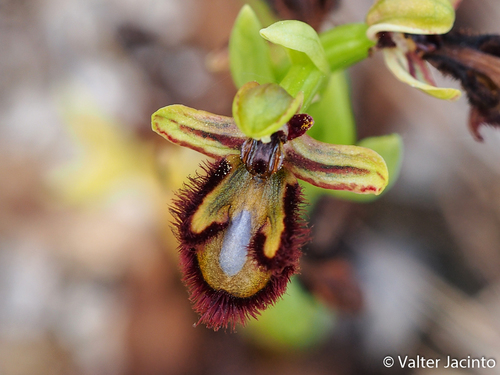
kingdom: Plantae
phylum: Tracheophyta
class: Liliopsida
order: Asparagales
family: Orchidaceae
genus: Ophrys
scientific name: Ophrys speculum
